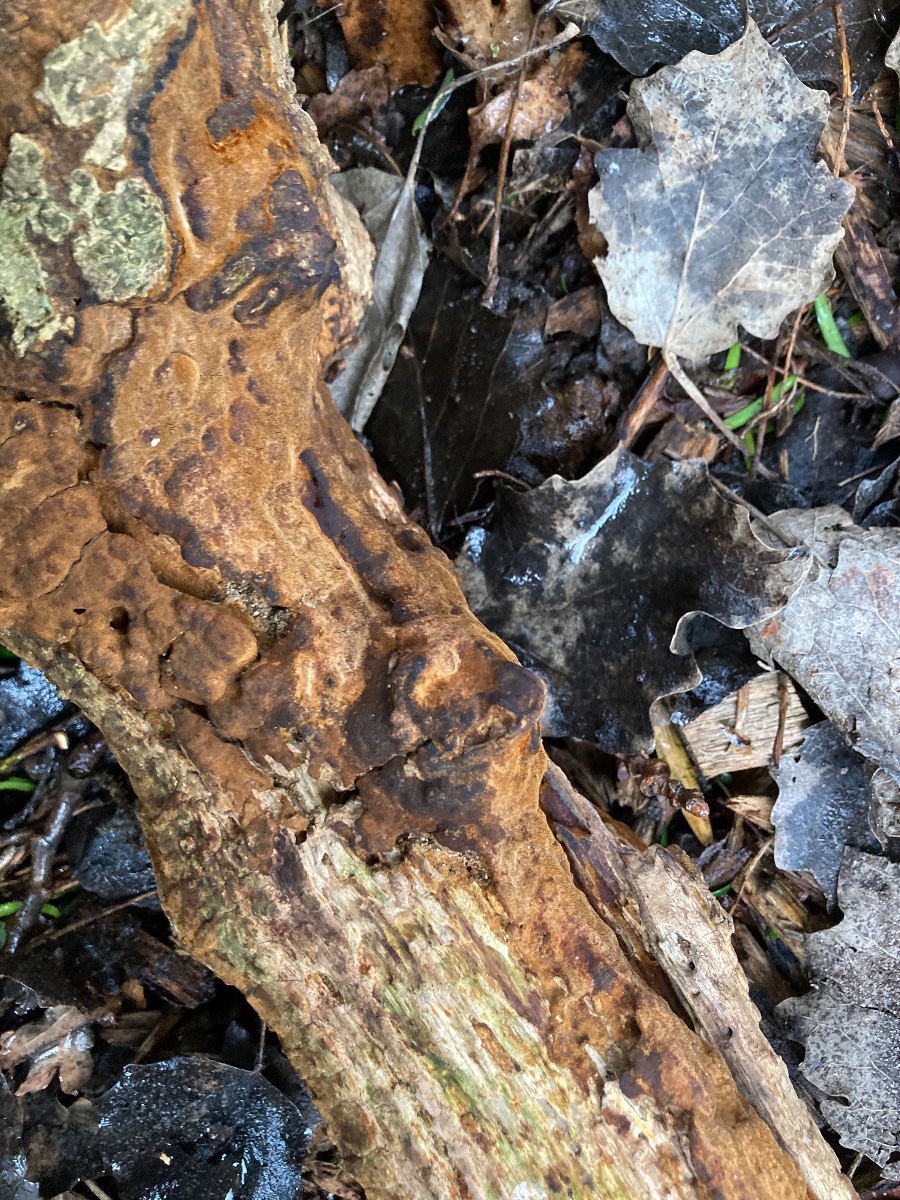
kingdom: Fungi
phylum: Basidiomycota
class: Agaricomycetes
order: Hymenochaetales
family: Hymenochaetaceae
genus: Fuscoporia
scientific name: Fuscoporia ferruginosa
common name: rustbrun ildporesvamp
